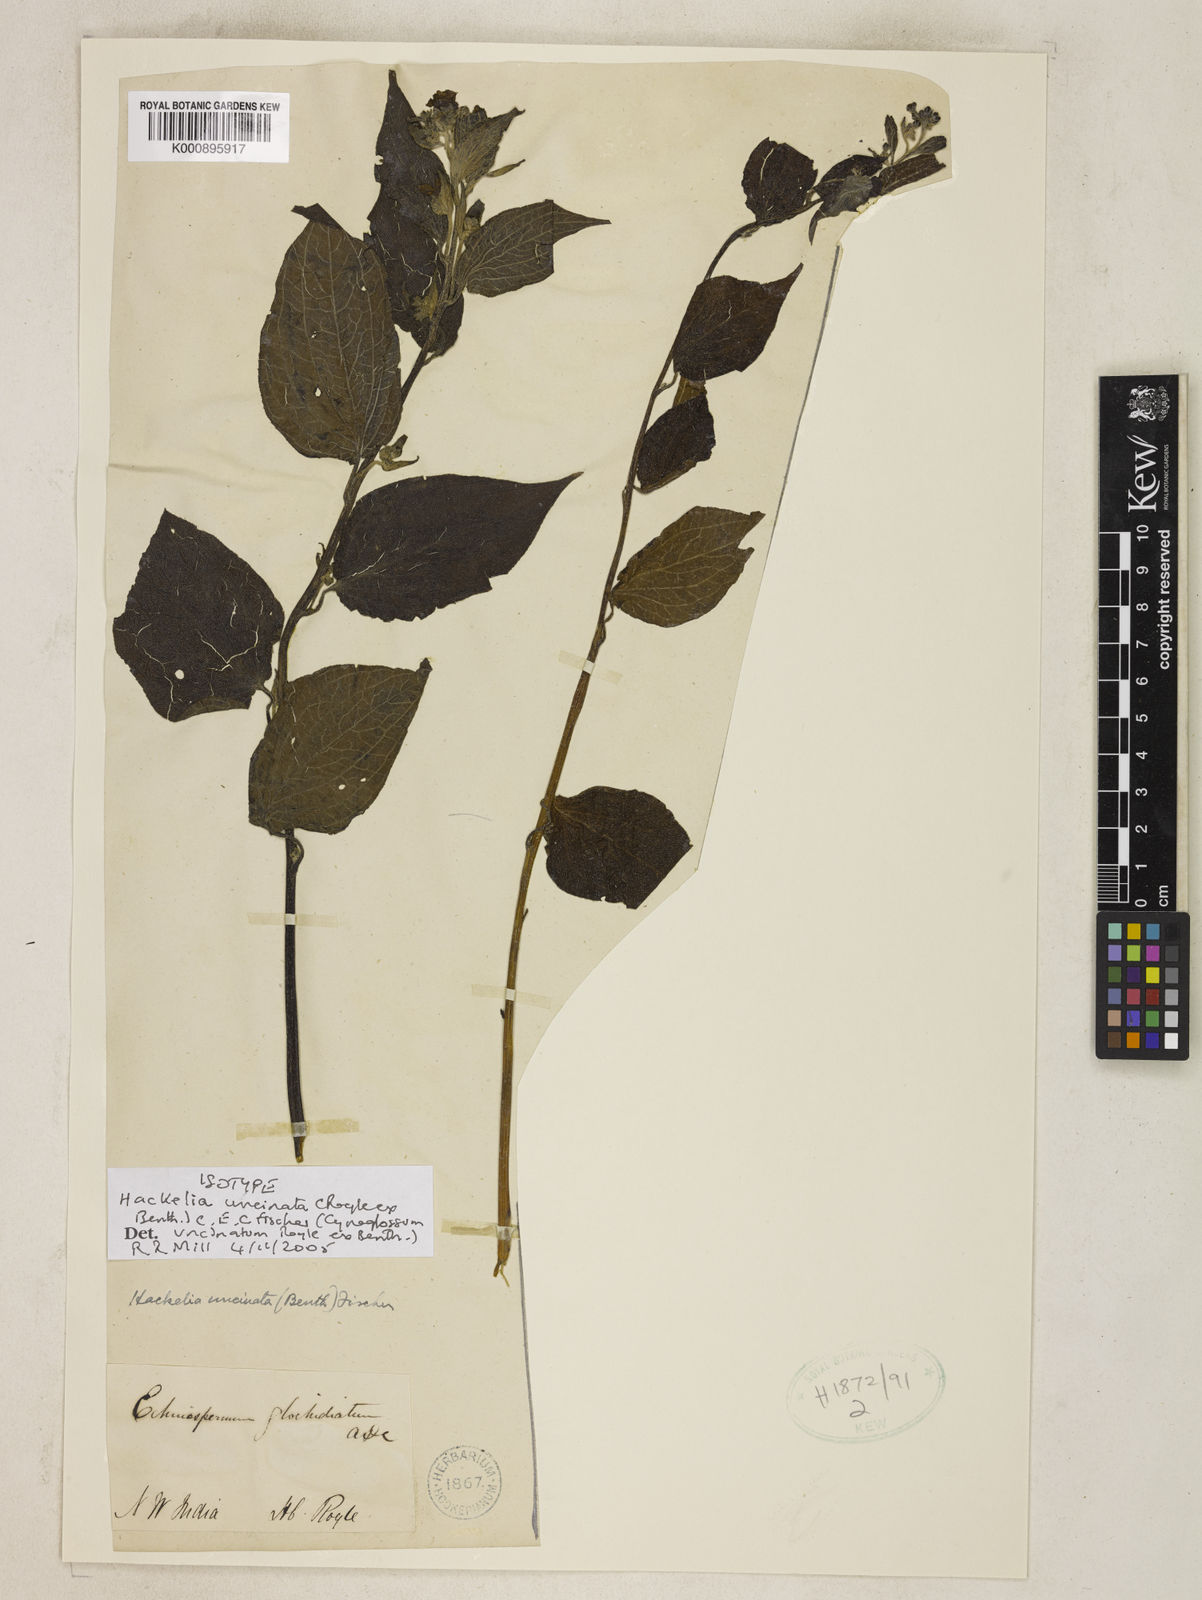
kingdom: Plantae
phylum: Tracheophyta
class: Magnoliopsida
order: Boraginales
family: Boraginaceae
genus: Hackelia
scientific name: Hackelia uncinata
